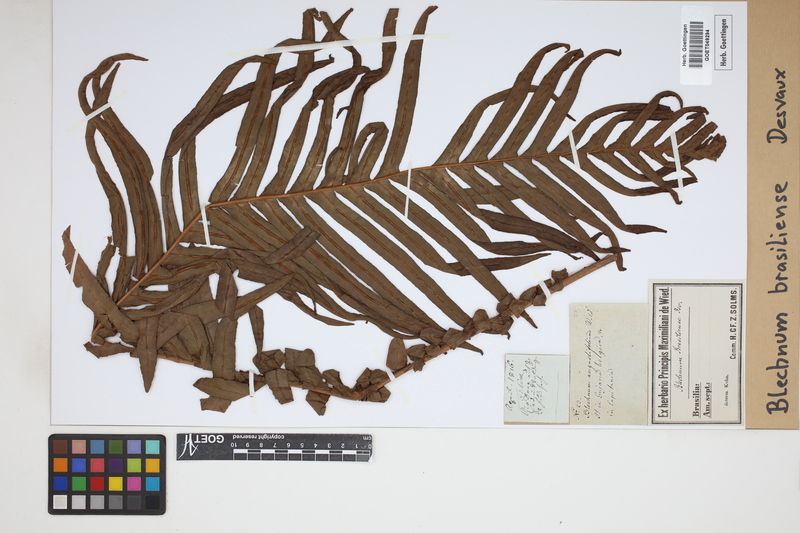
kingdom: Plantae
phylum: Tracheophyta
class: Polypodiopsida
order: Polypodiales
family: Blechnaceae
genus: Neoblechnum
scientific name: Neoblechnum brasiliense
